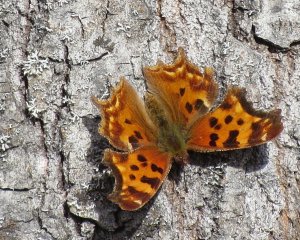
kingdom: Animalia
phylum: Arthropoda
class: Insecta
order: Lepidoptera
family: Nymphalidae
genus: Polygonia
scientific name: Polygonia faunus
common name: Green Comma
